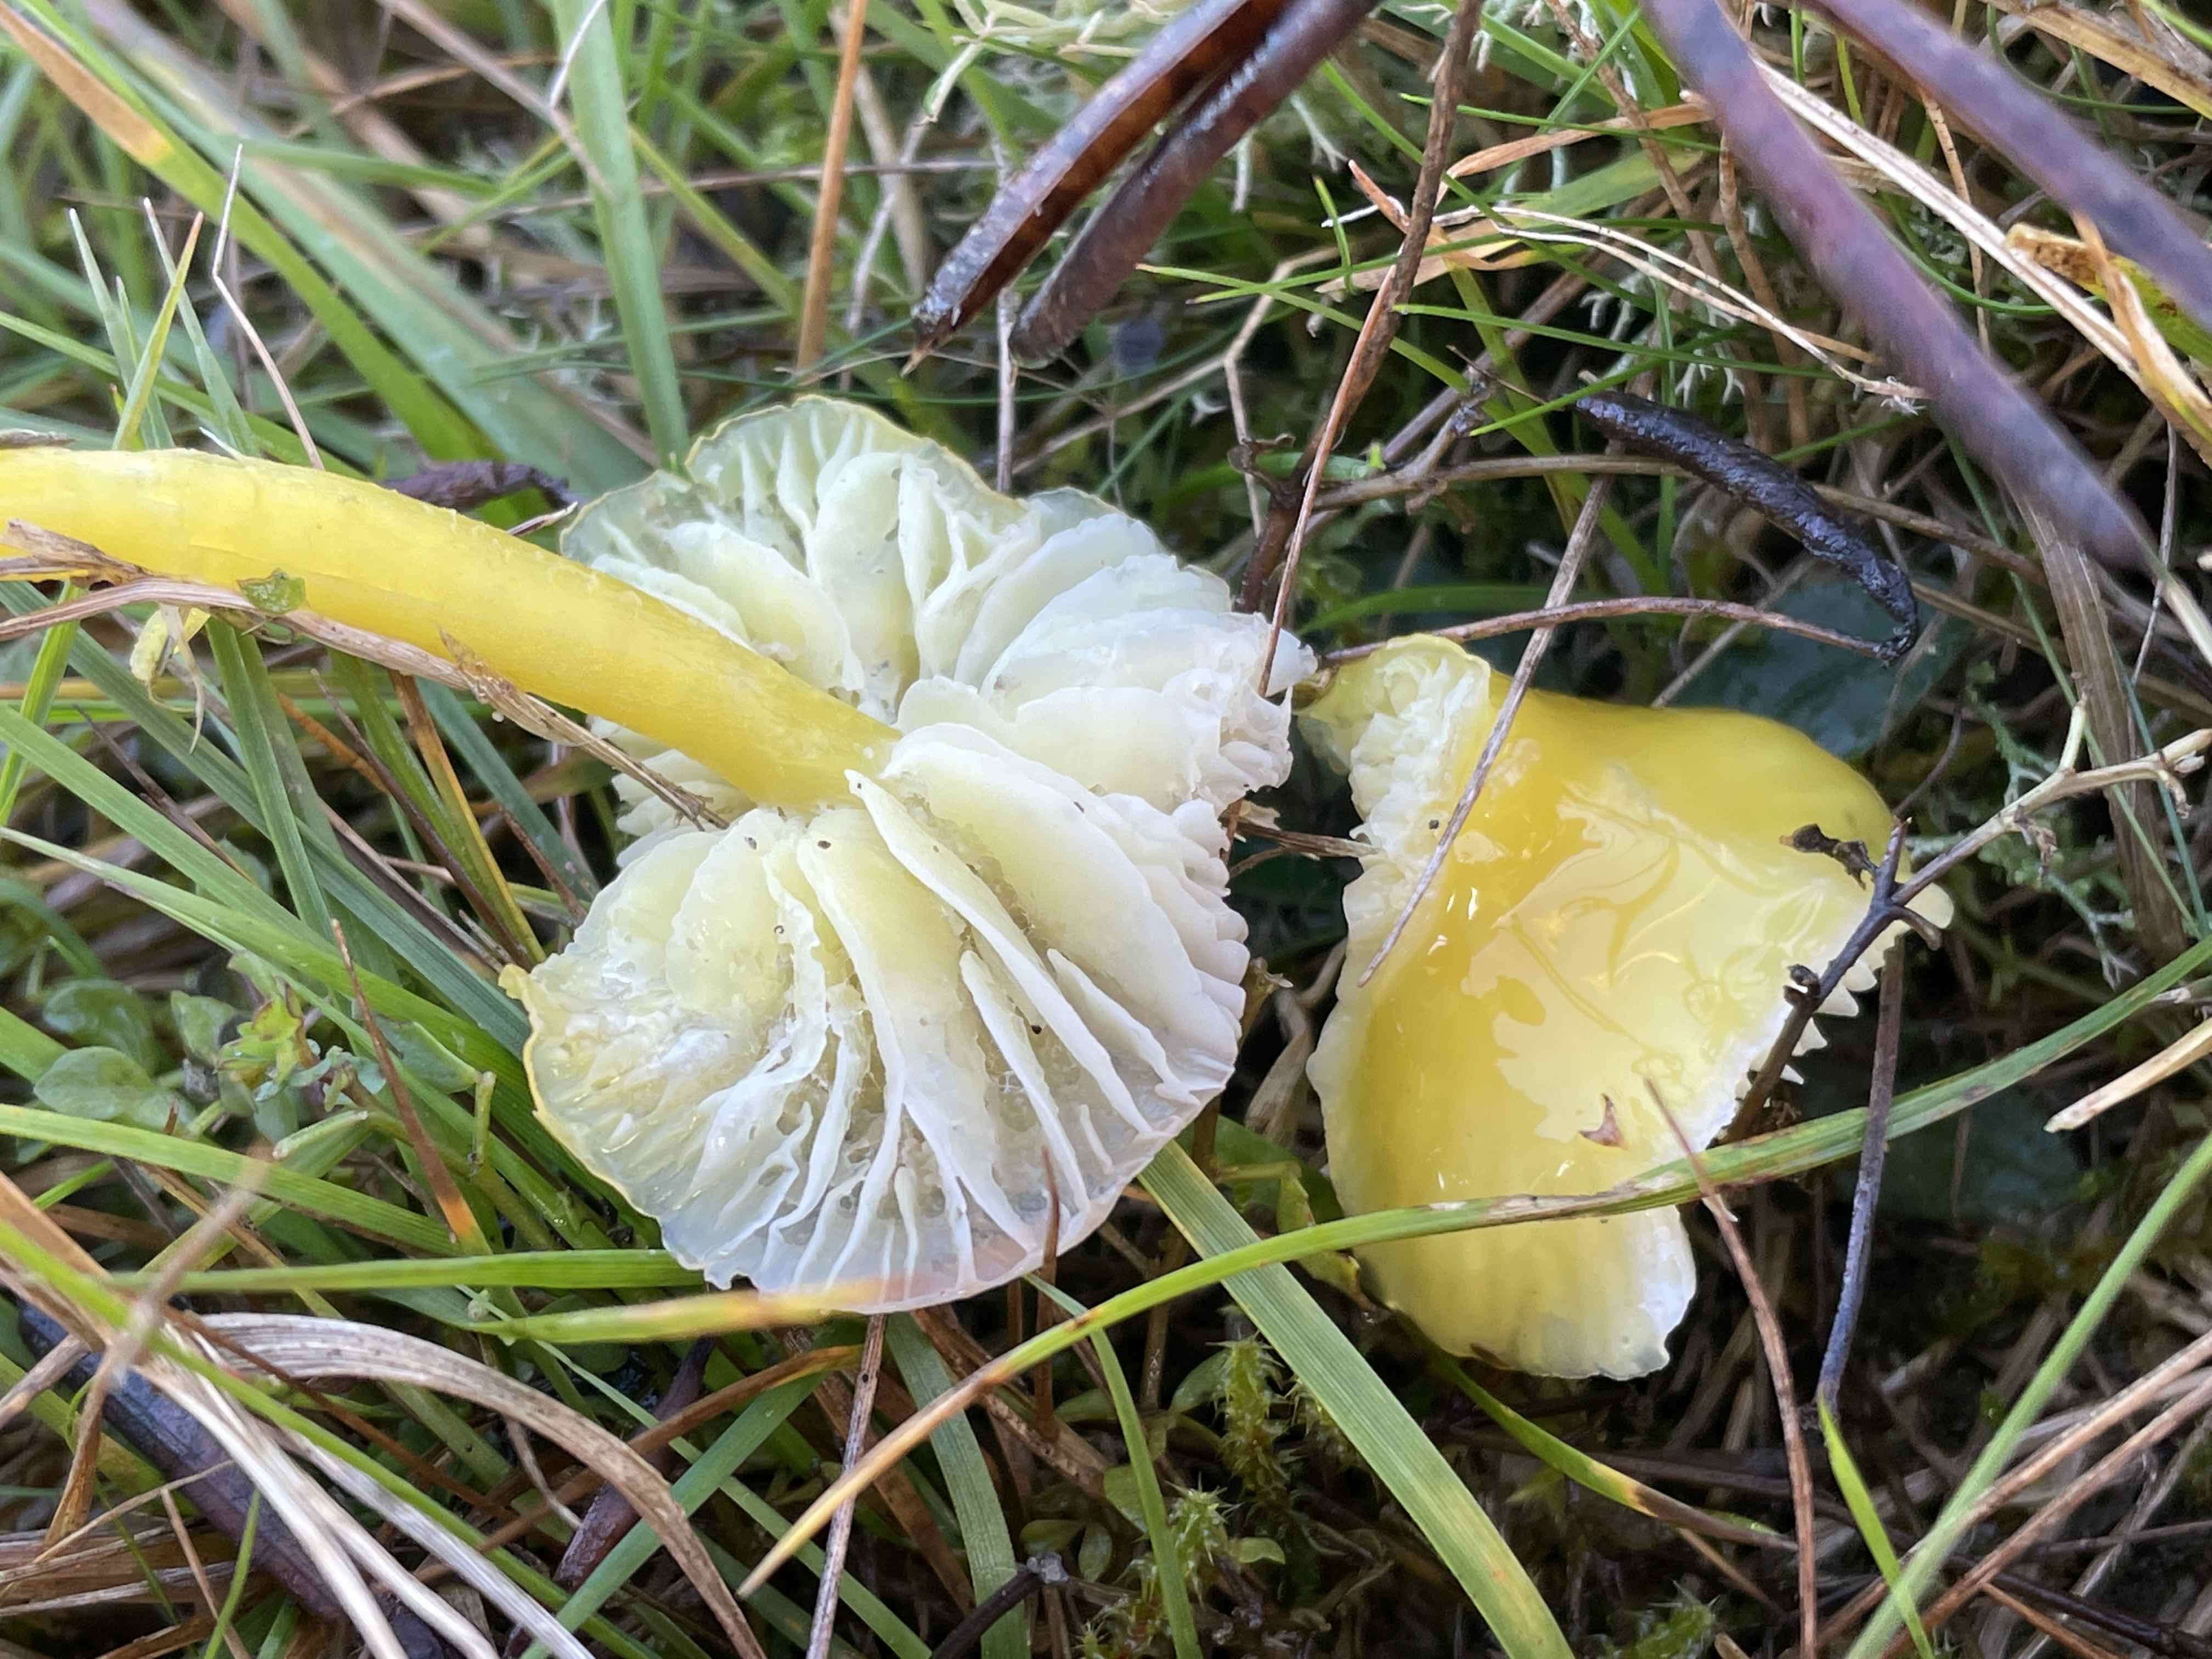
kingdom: Fungi
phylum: Basidiomycota
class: Agaricomycetes
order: Agaricales
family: Hygrophoraceae
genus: Hygrocybe
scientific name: Hygrocybe chlorophana
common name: gul vokshat
